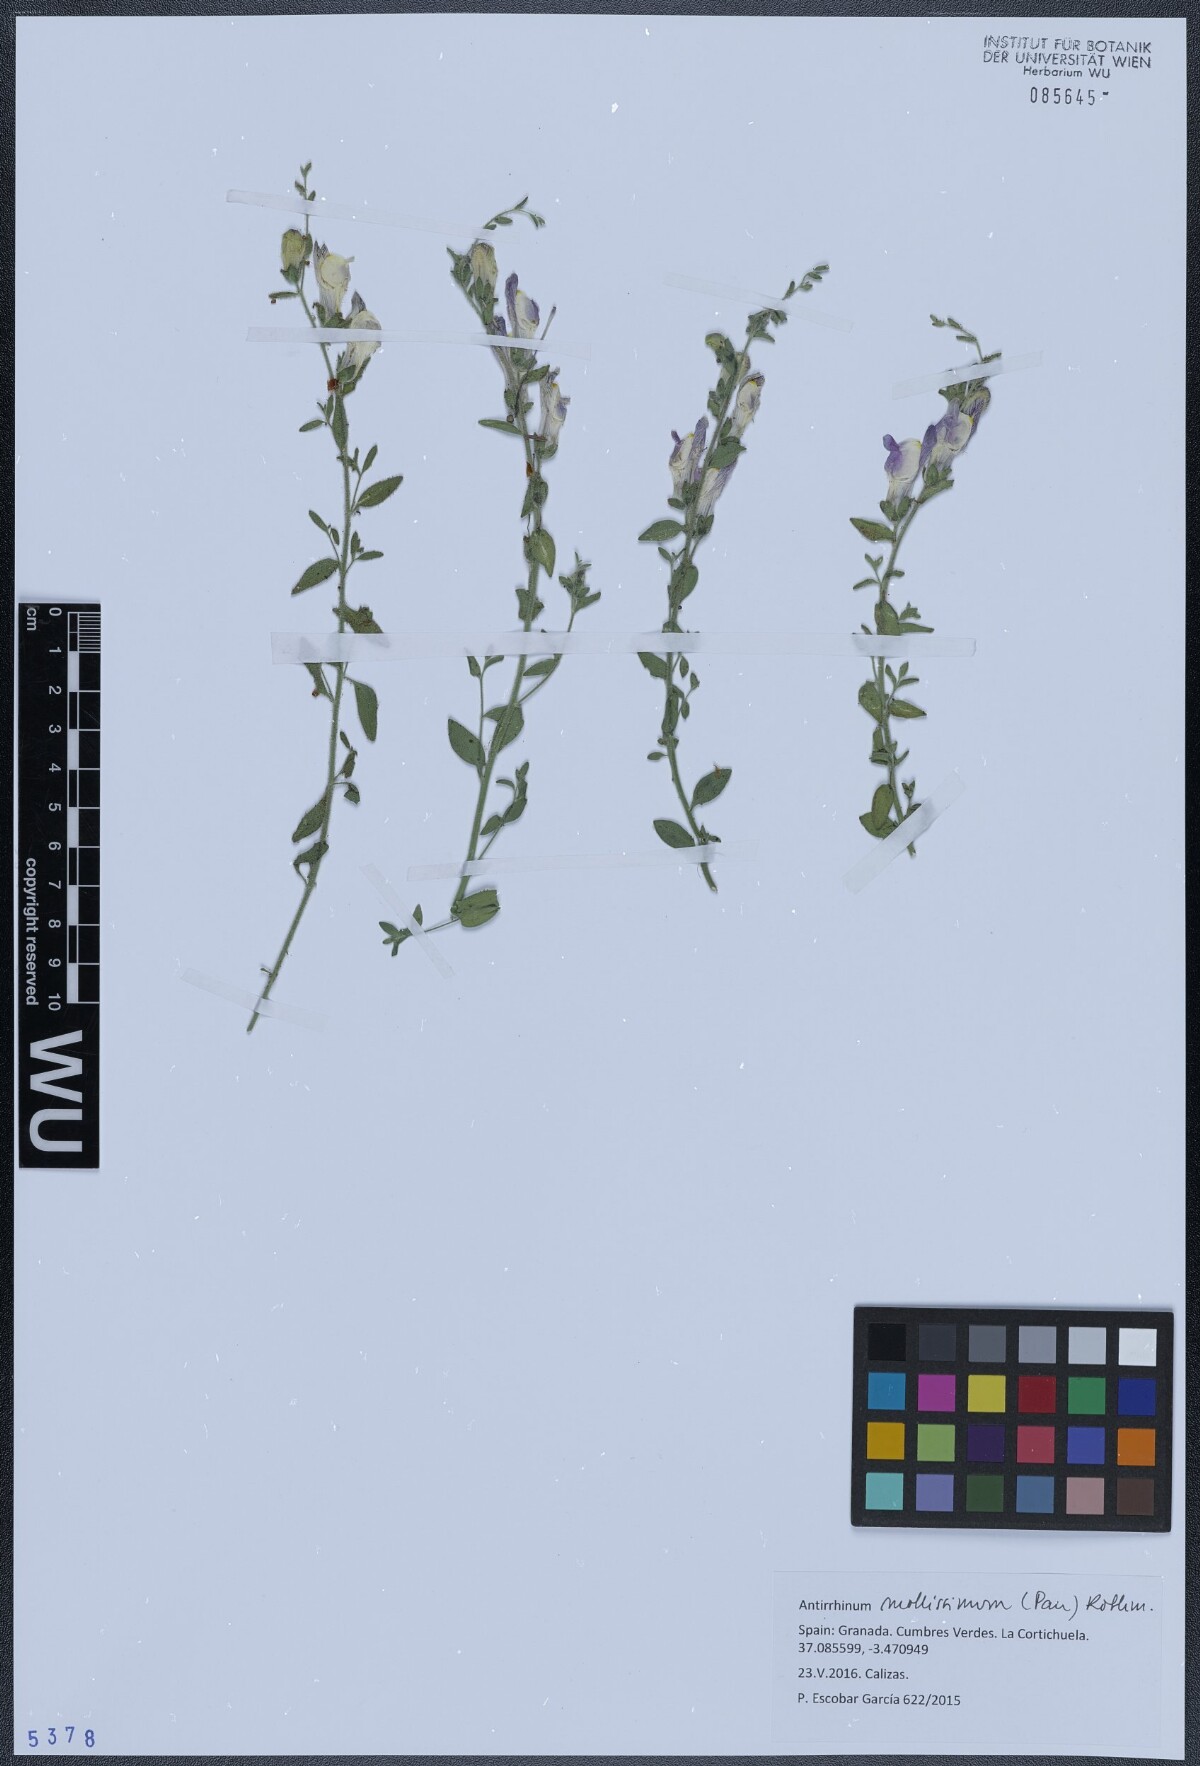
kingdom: Plantae
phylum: Tracheophyta
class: Magnoliopsida
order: Lamiales
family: Plantaginaceae
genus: Antirrhinum
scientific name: Antirrhinum mollissimum
